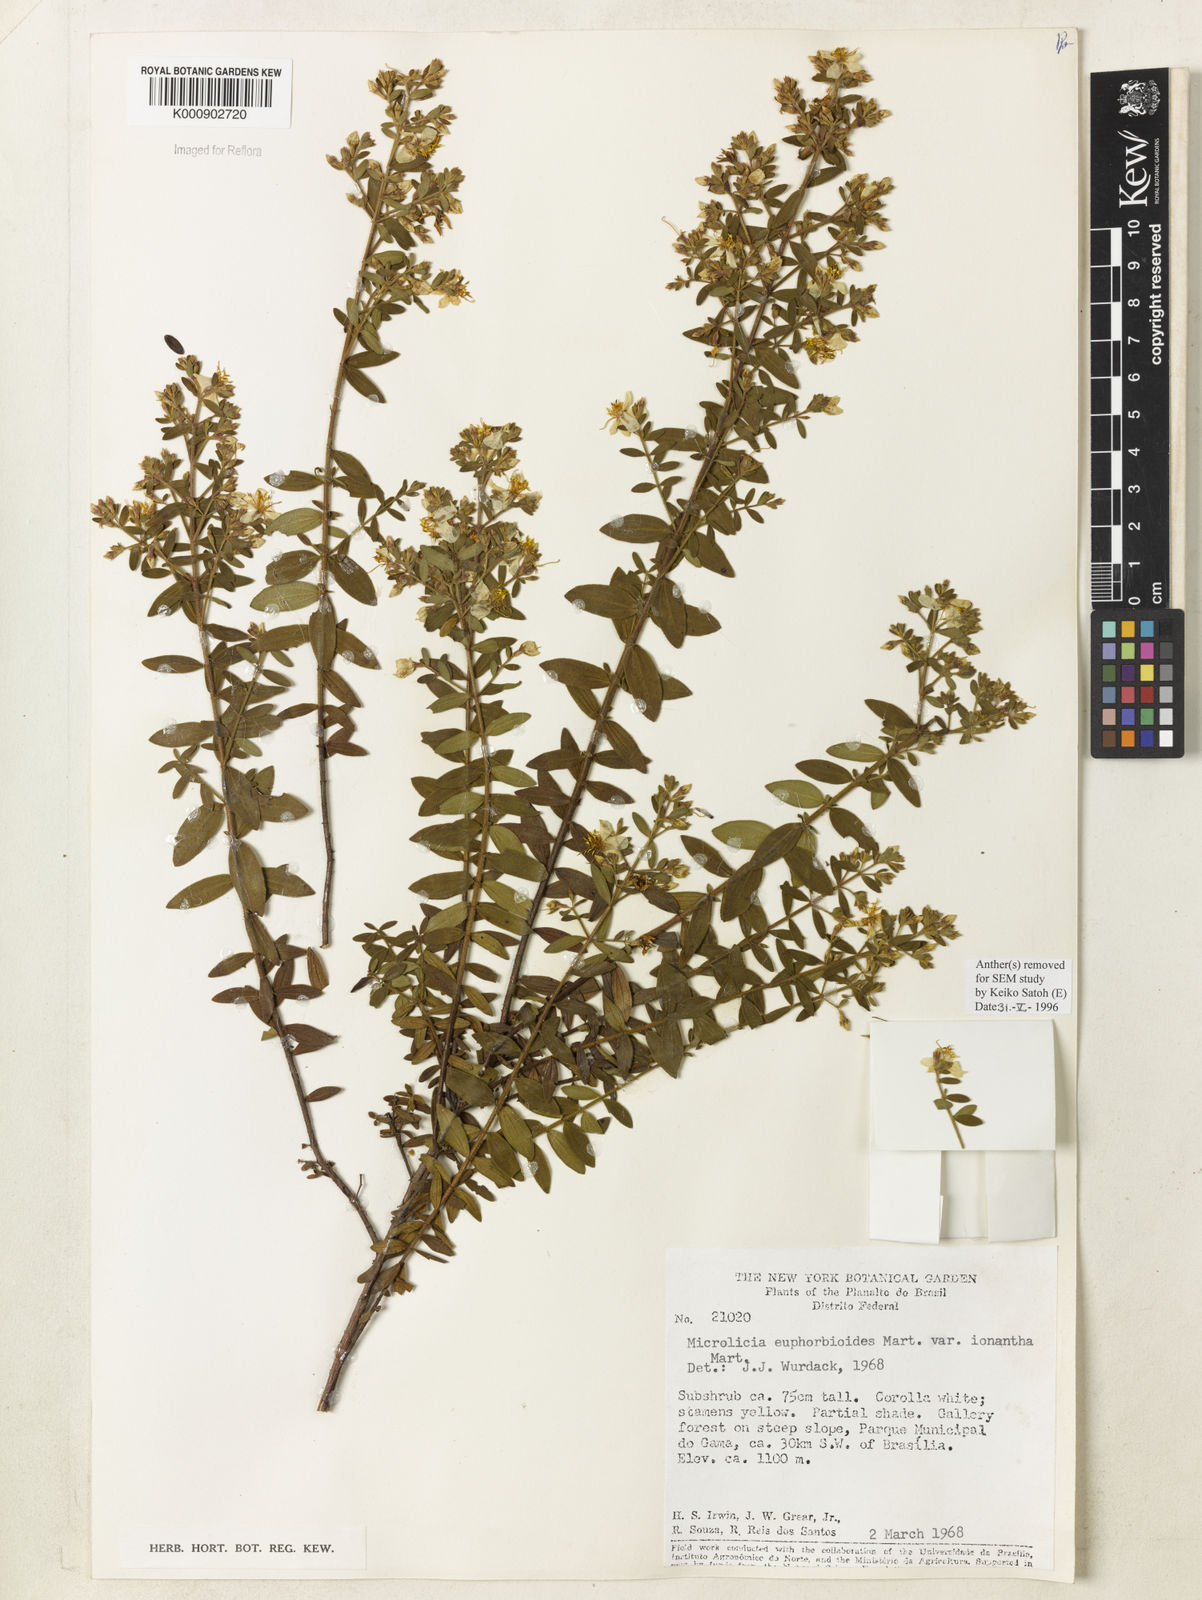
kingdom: Plantae
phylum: Tracheophyta
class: Magnoliopsida
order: Myrtales
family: Melastomataceae
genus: Microlicia
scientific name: Microlicia euphorbioides
